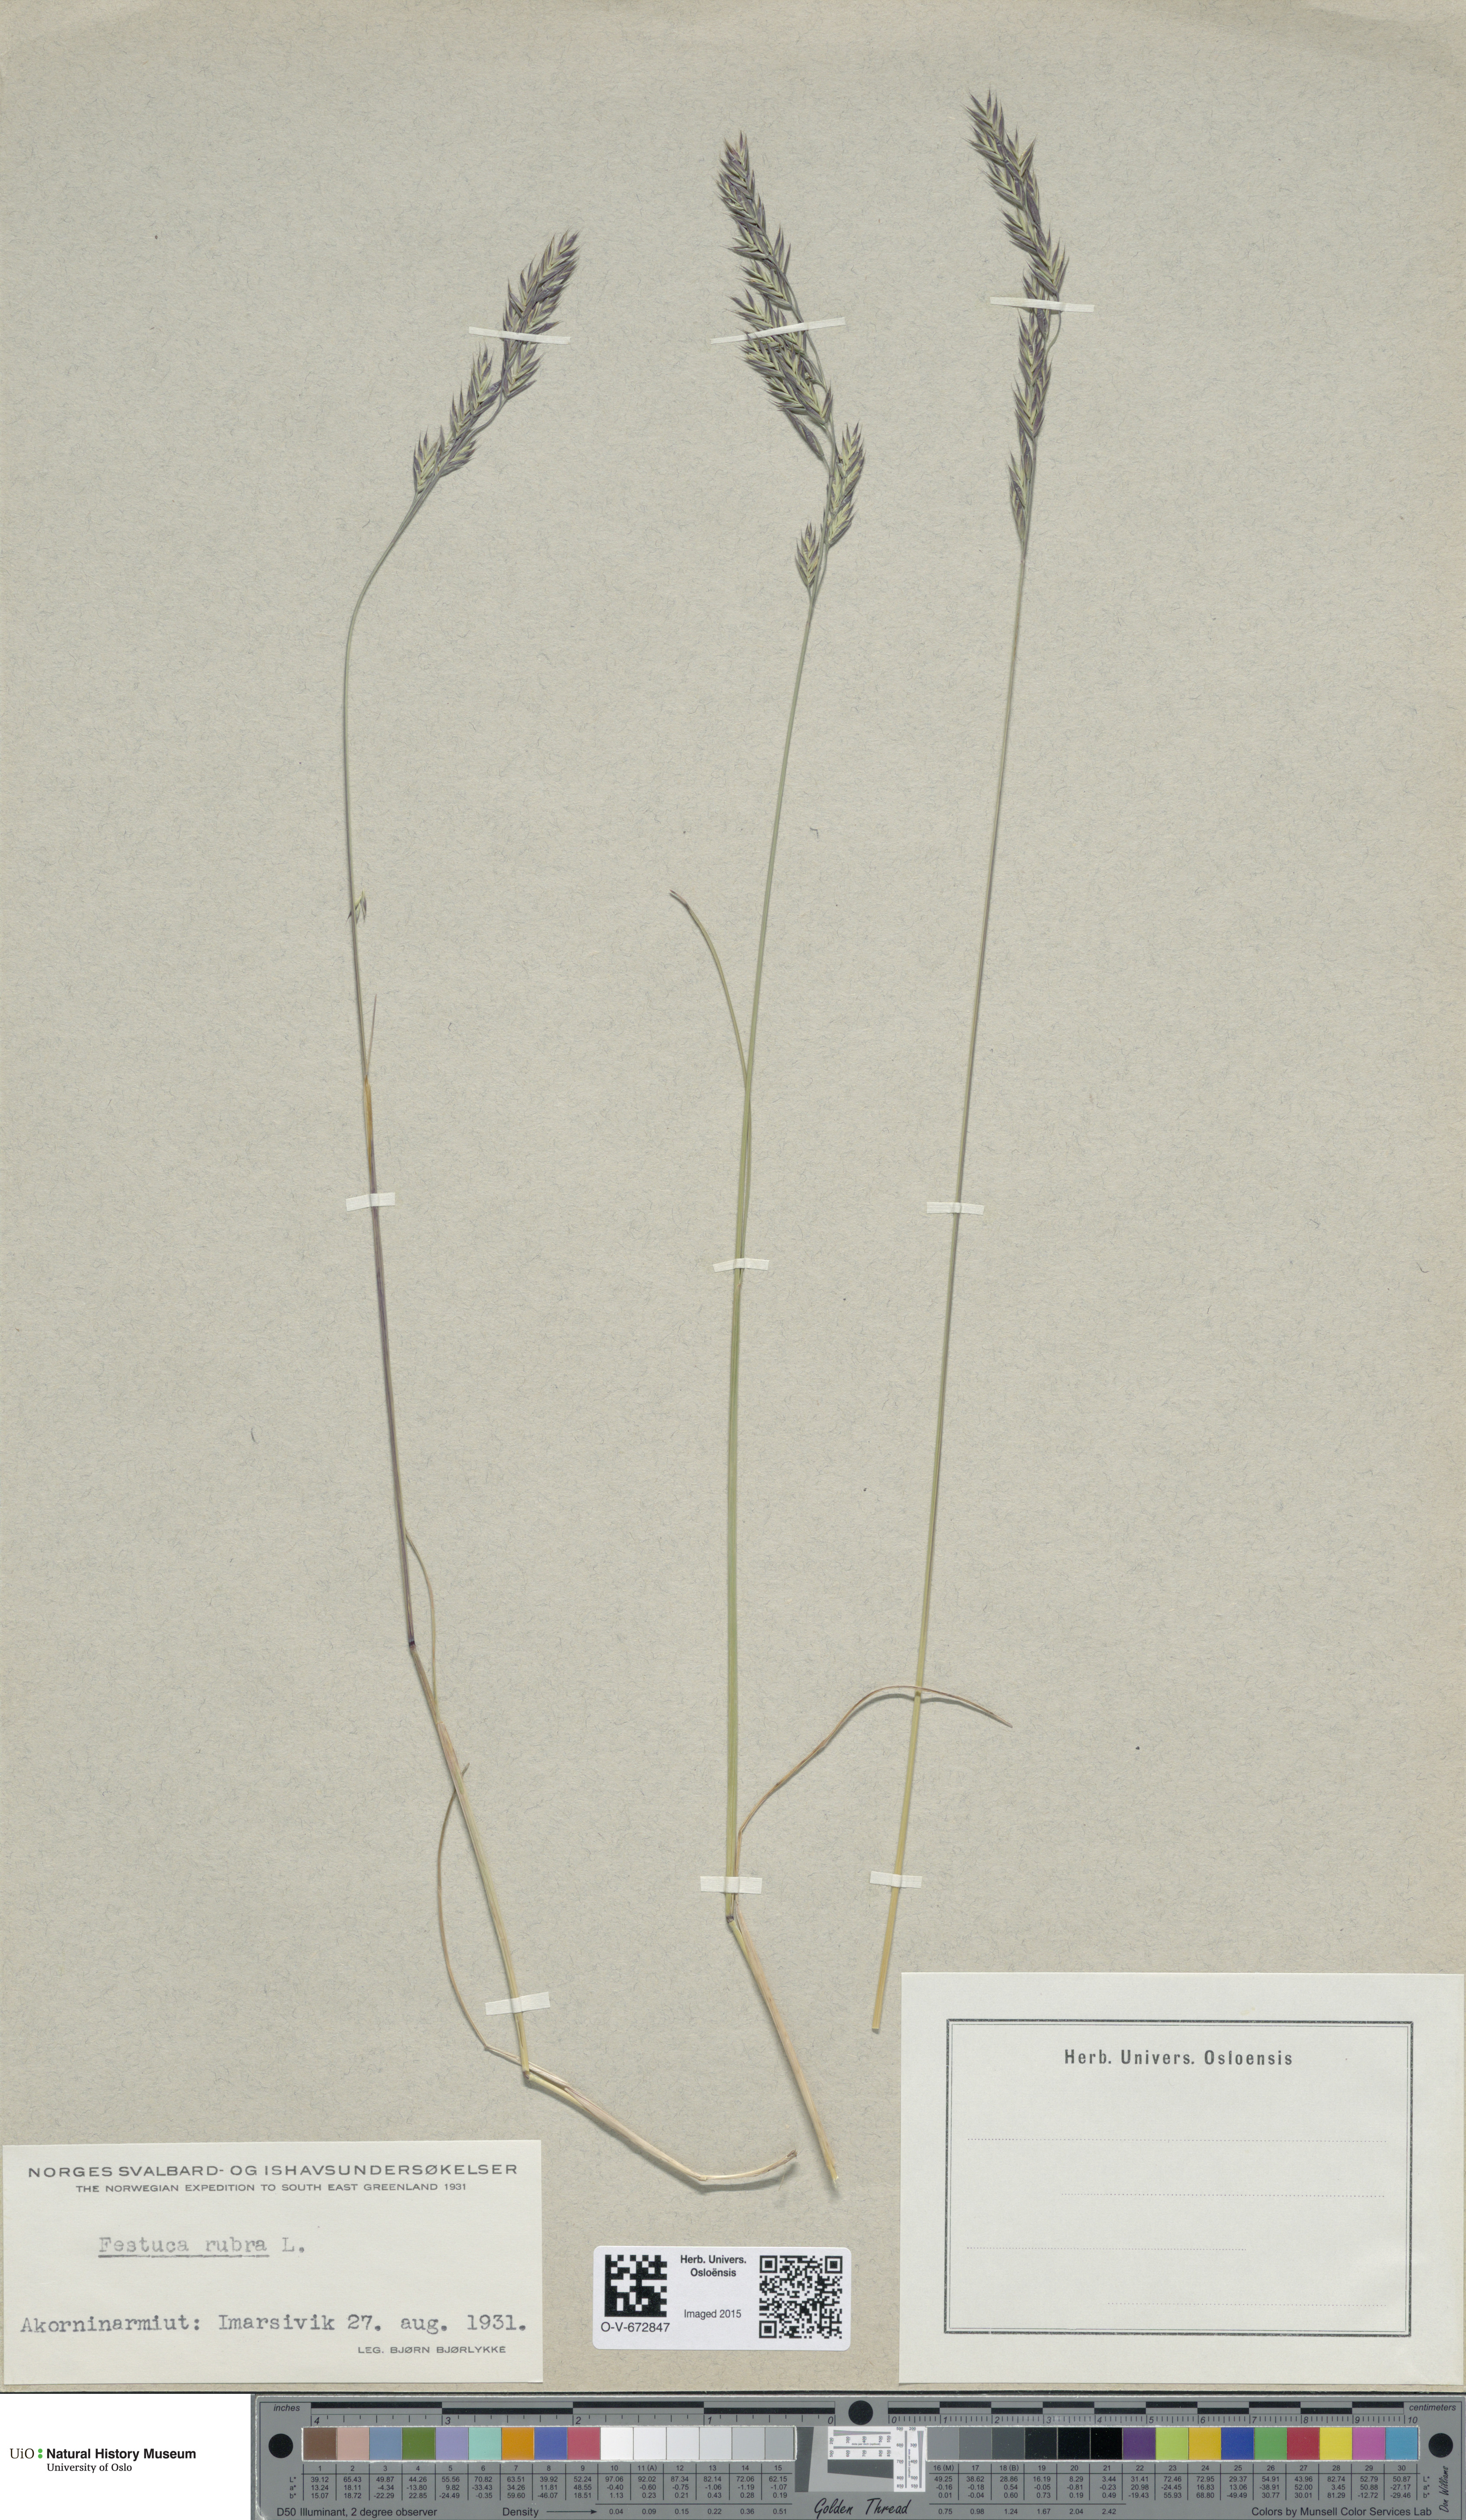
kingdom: Plantae
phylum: Tracheophyta
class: Liliopsida
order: Poales
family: Poaceae
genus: Festuca
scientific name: Festuca rubra
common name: Red fescue
